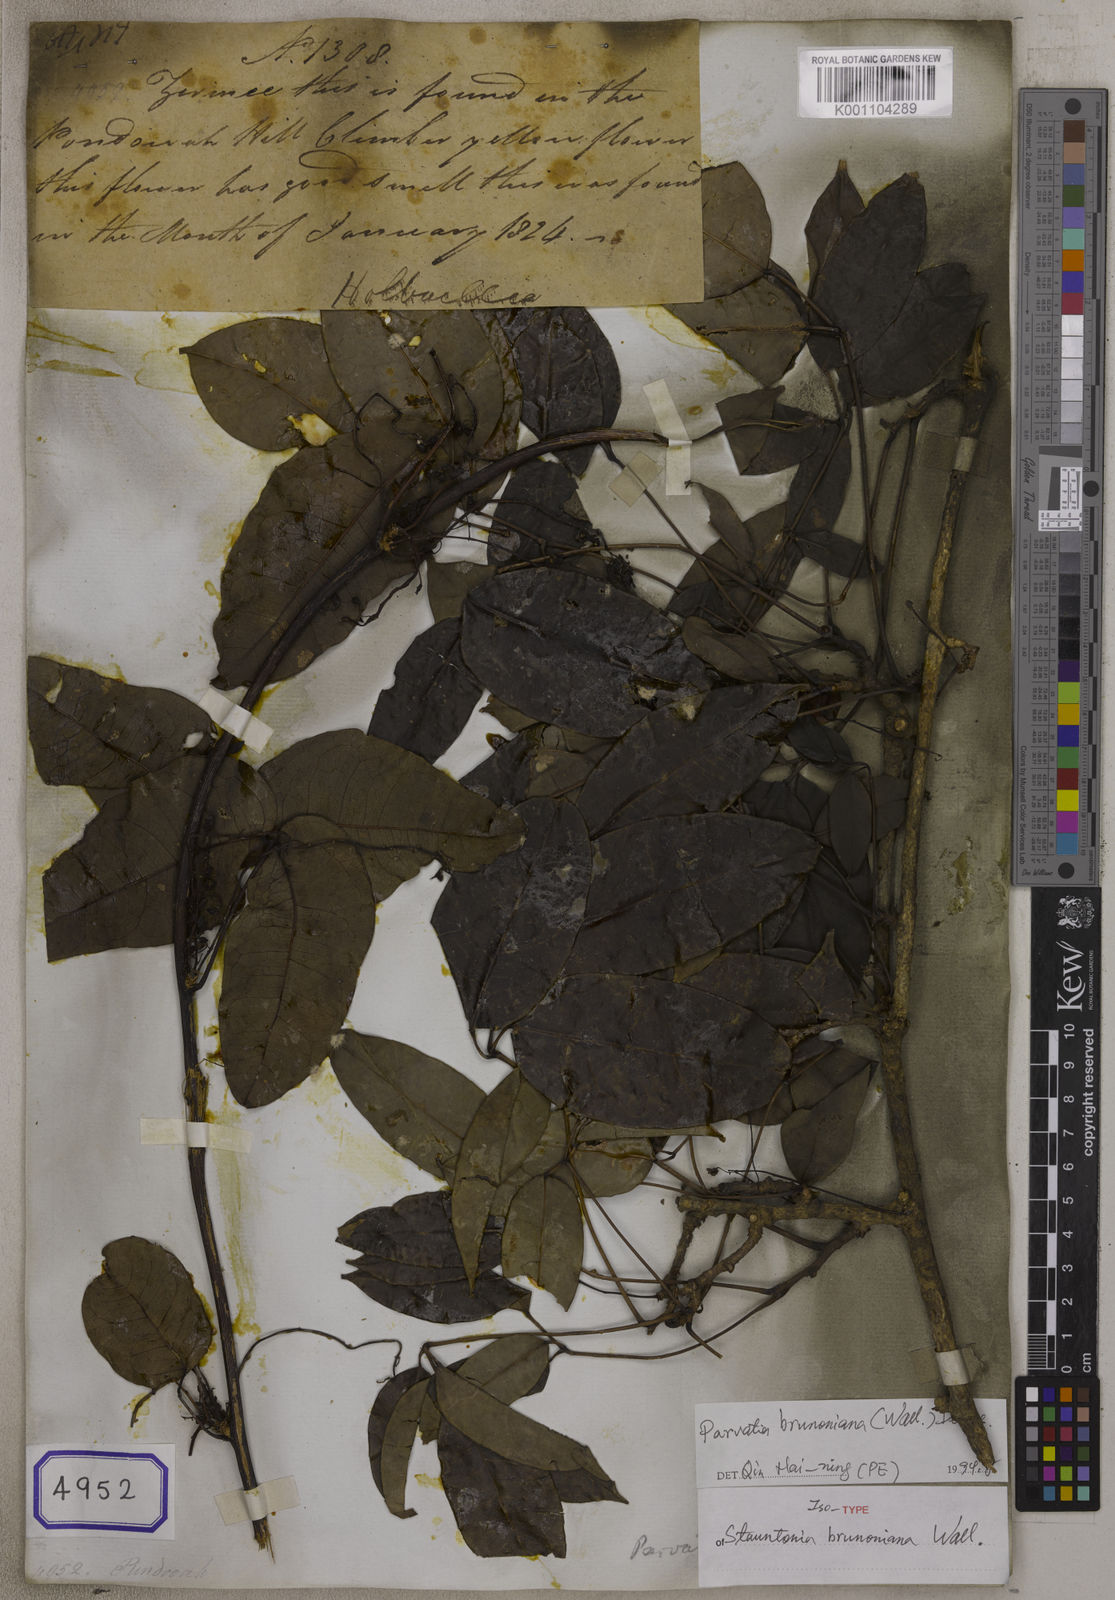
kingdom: Plantae
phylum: Tracheophyta
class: Magnoliopsida
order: Ranunculales
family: Lardizabalaceae
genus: Stauntonia
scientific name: Stauntonia
